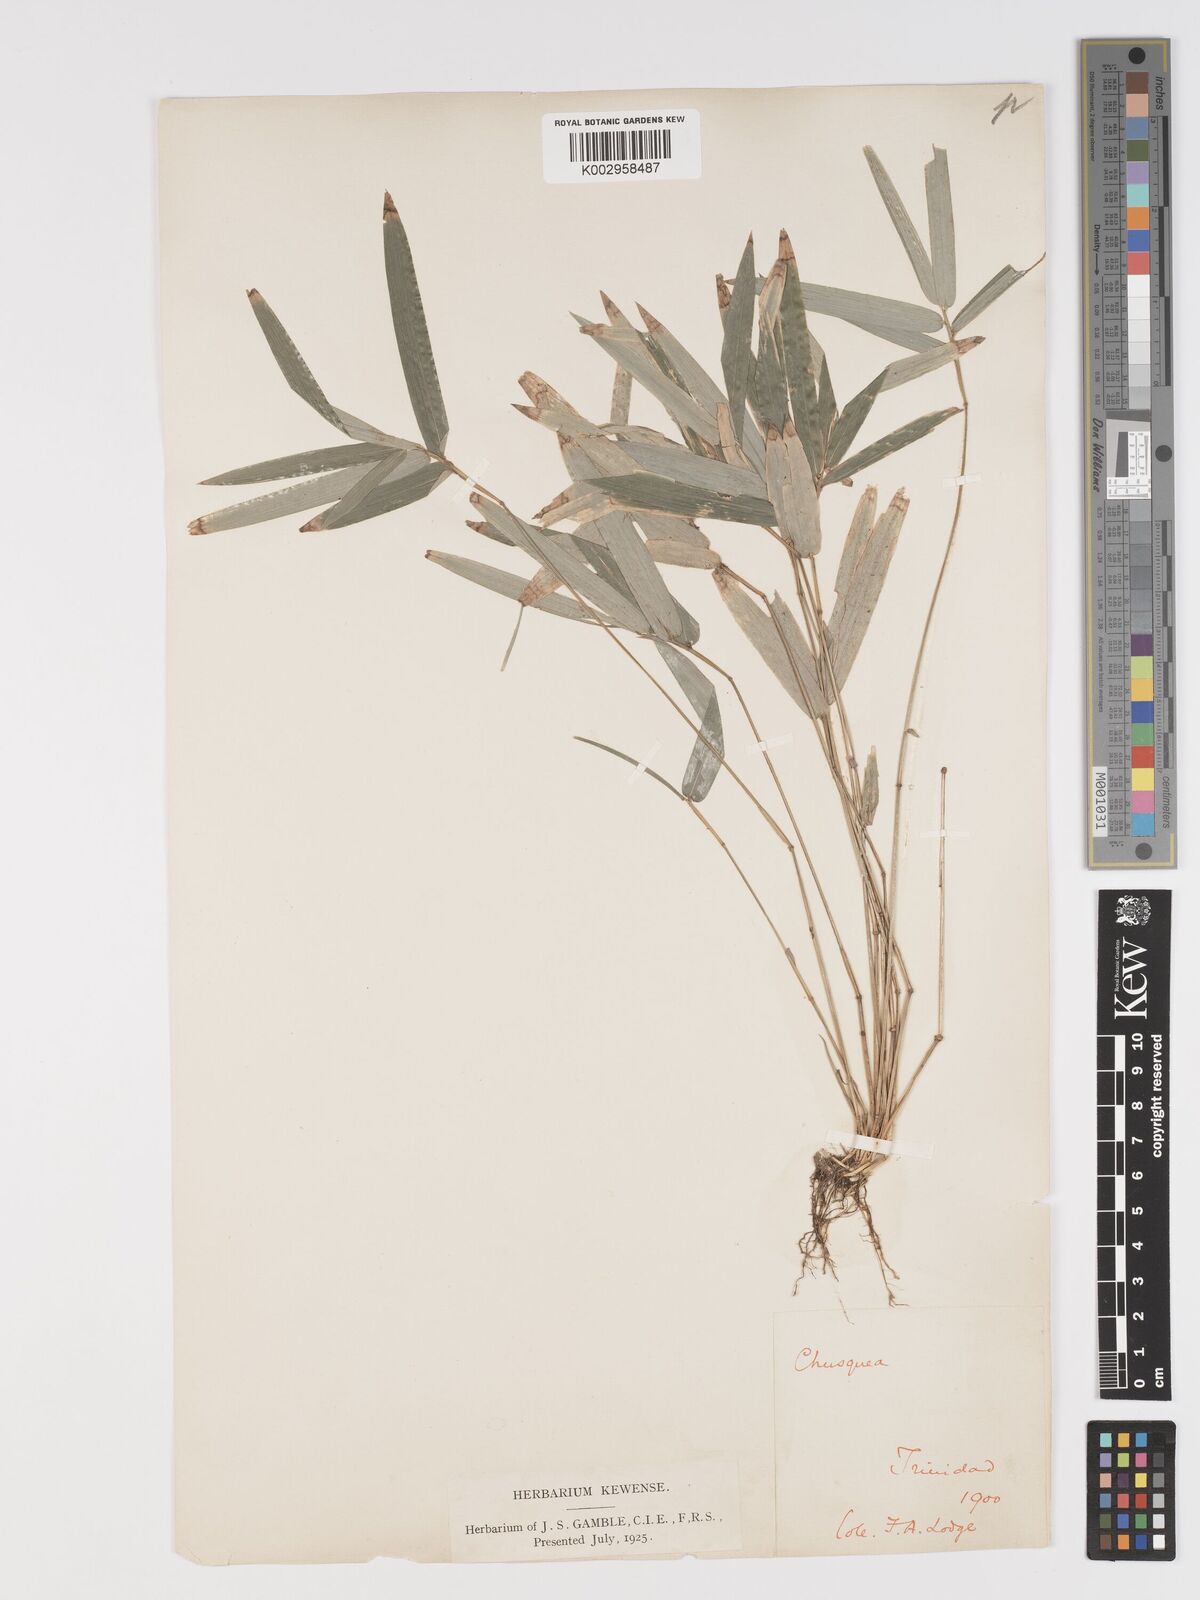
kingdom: Plantae
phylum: Tracheophyta
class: Liliopsida
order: Poales
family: Poaceae
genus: Piresia
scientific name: Piresia sympodica
